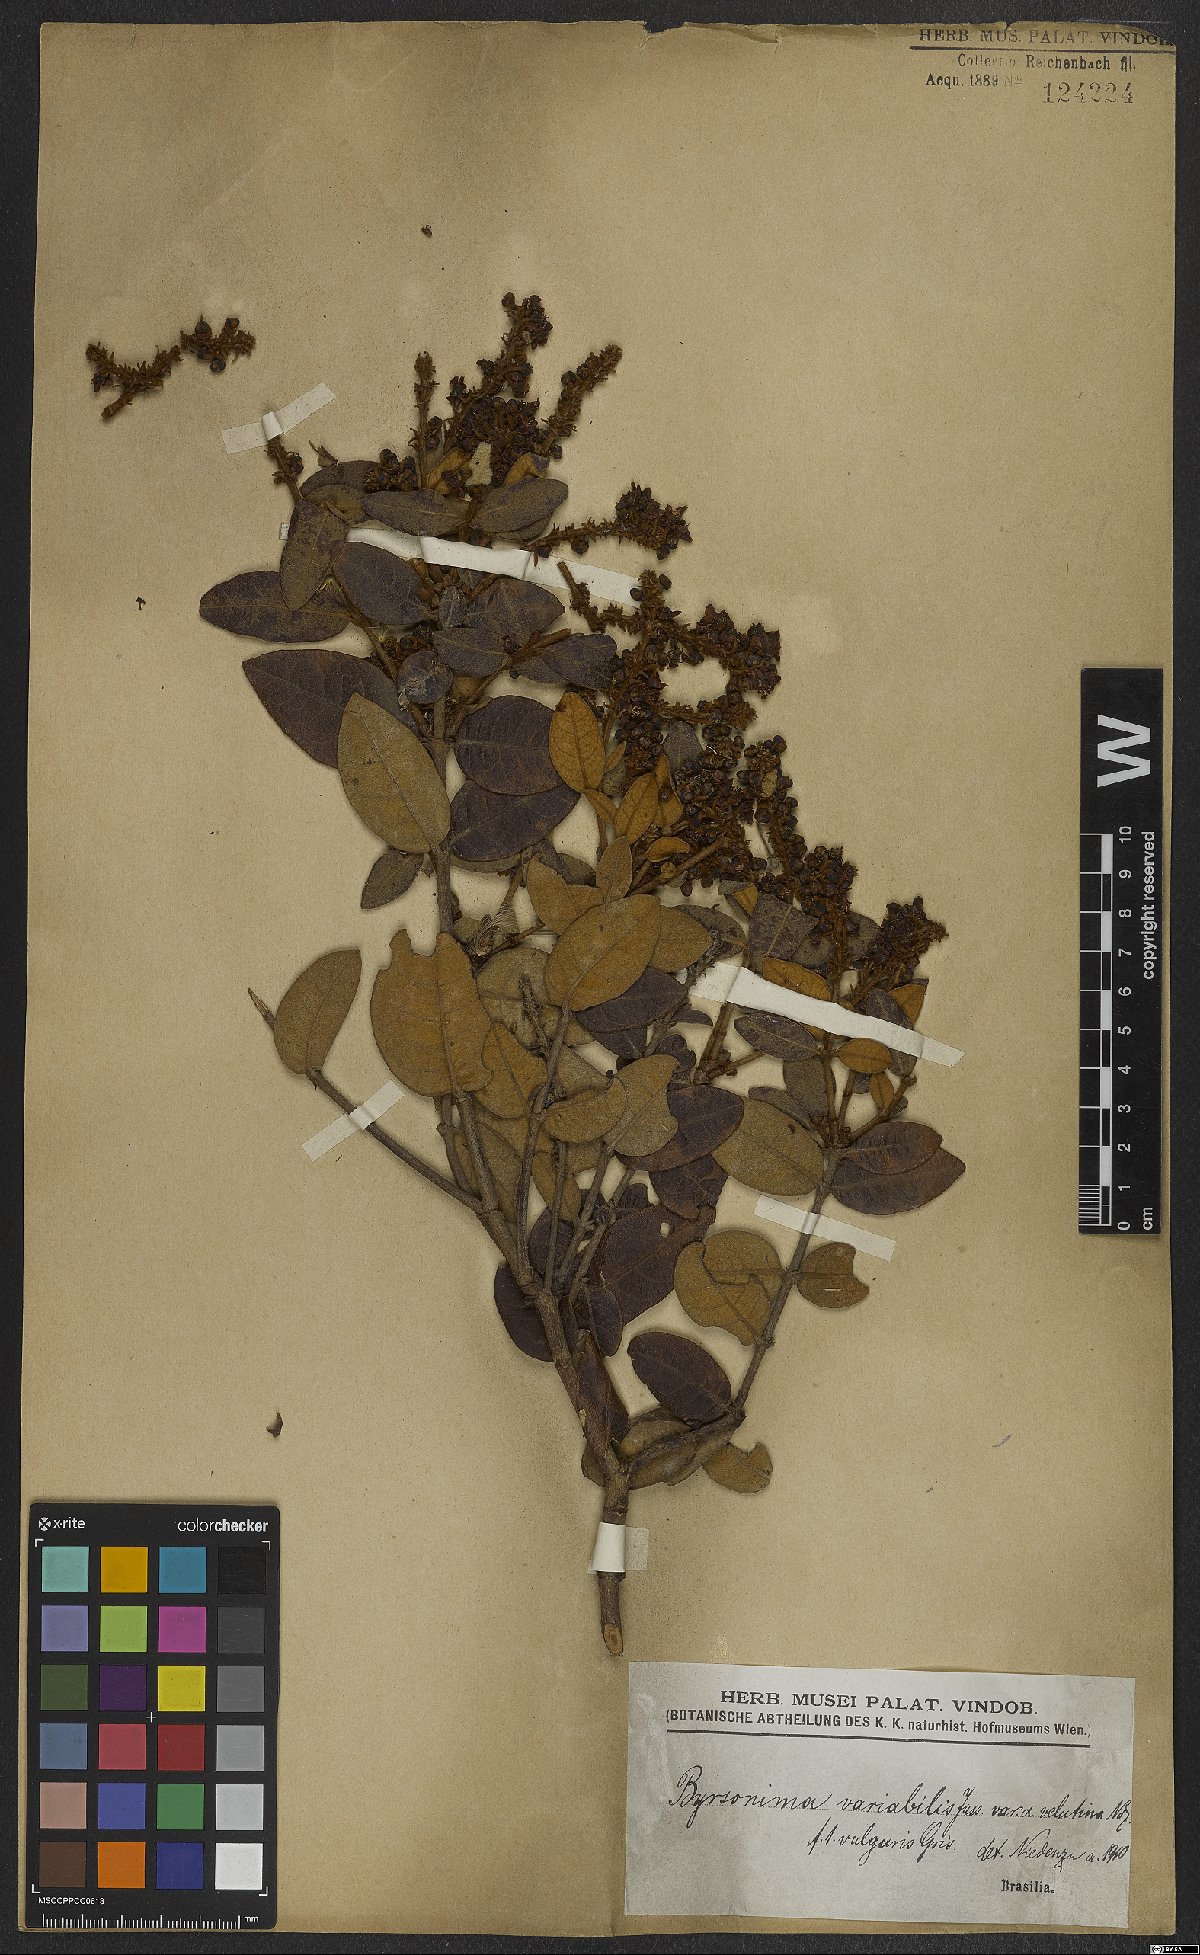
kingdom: Plantae
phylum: Tracheophyta
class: Magnoliopsida
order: Malpighiales
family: Malpighiaceae
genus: Byrsonima
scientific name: Byrsonima variabilis
